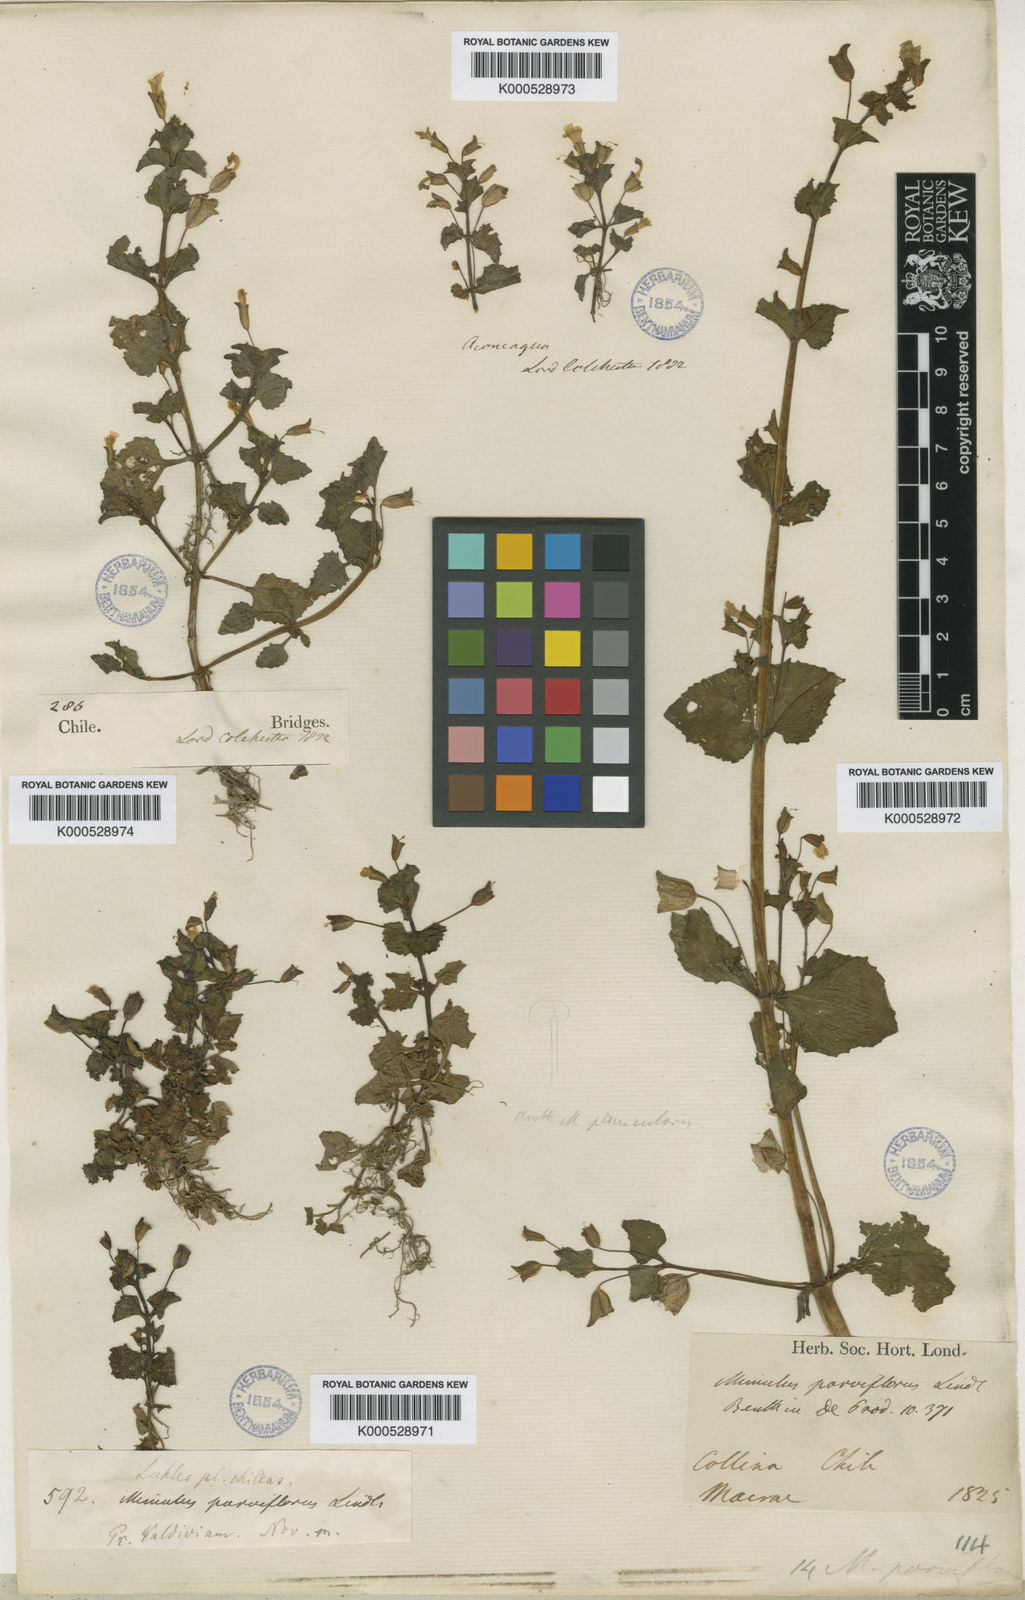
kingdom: Plantae
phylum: Tracheophyta
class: Magnoliopsida
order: Lamiales
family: Phrymaceae
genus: Erythranthe
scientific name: Erythranthe andicola
